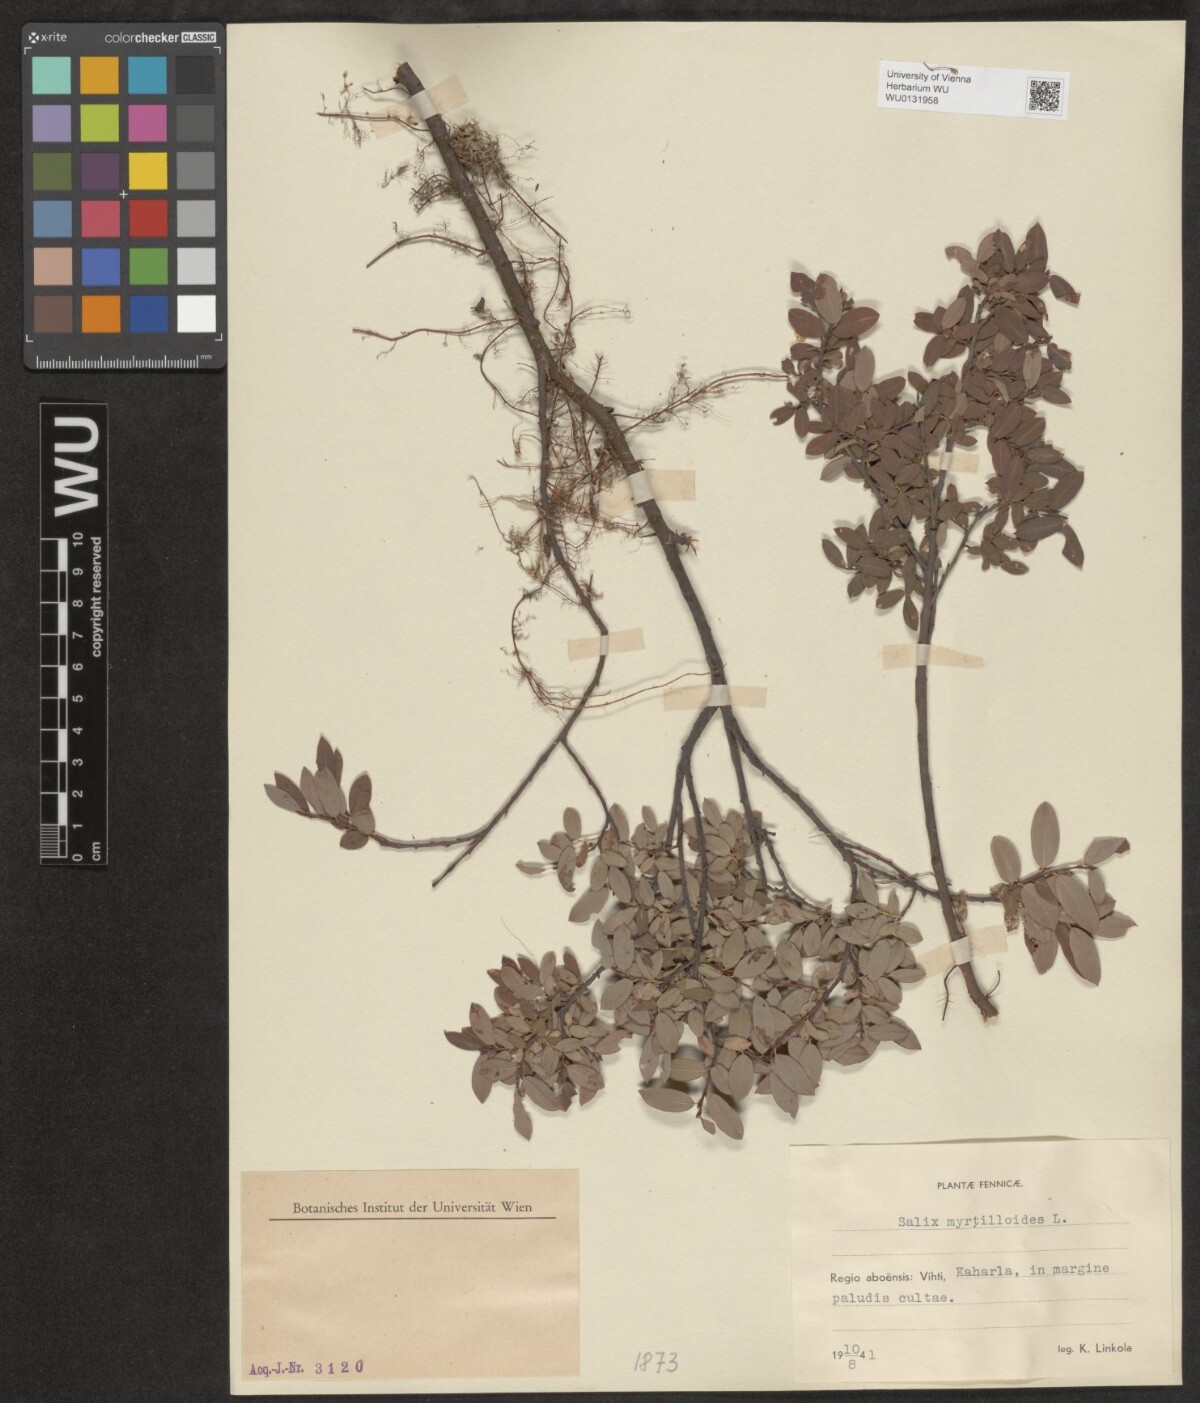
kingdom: Plantae
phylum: Tracheophyta
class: Magnoliopsida
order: Malpighiales
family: Salicaceae
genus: Salix
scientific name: Salix myrtilloides
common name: Myrtle-leaved willow
